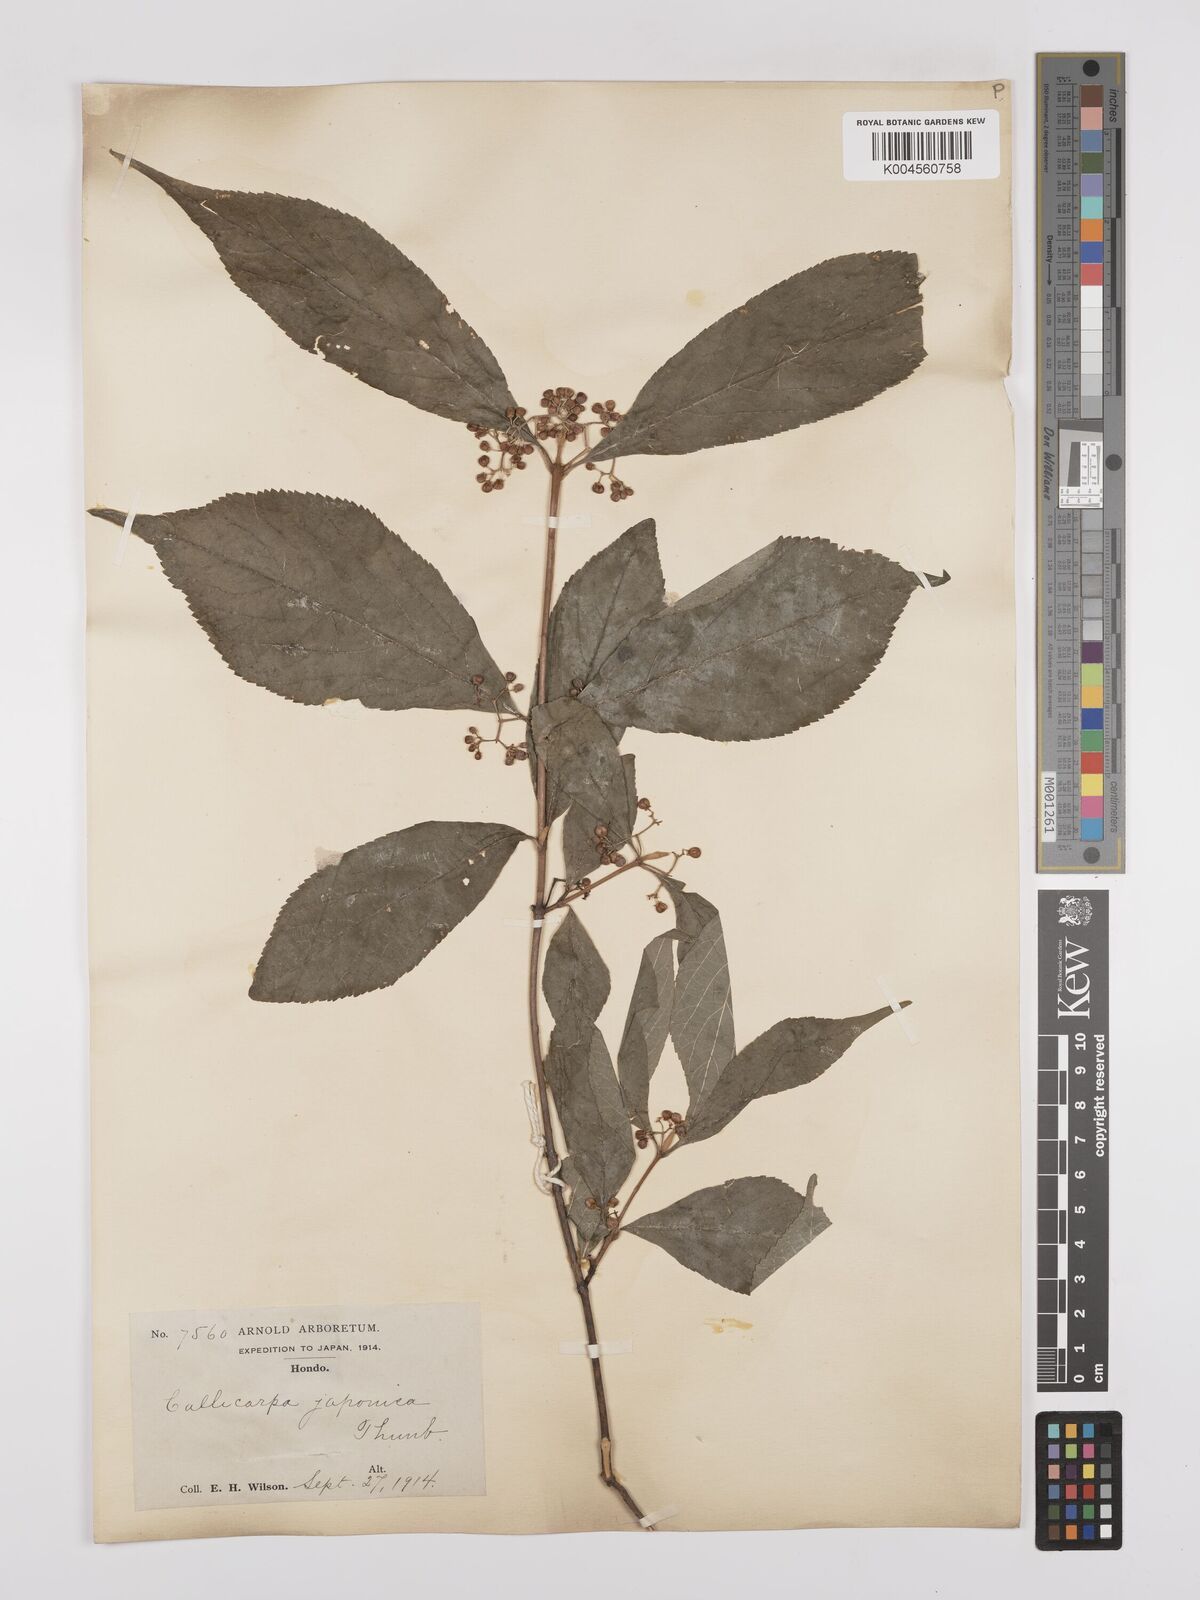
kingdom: Plantae
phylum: Tracheophyta
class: Magnoliopsida
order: Lamiales
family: Lamiaceae
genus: Callicarpa
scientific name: Callicarpa japonica
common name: Japanese beauty-berry
